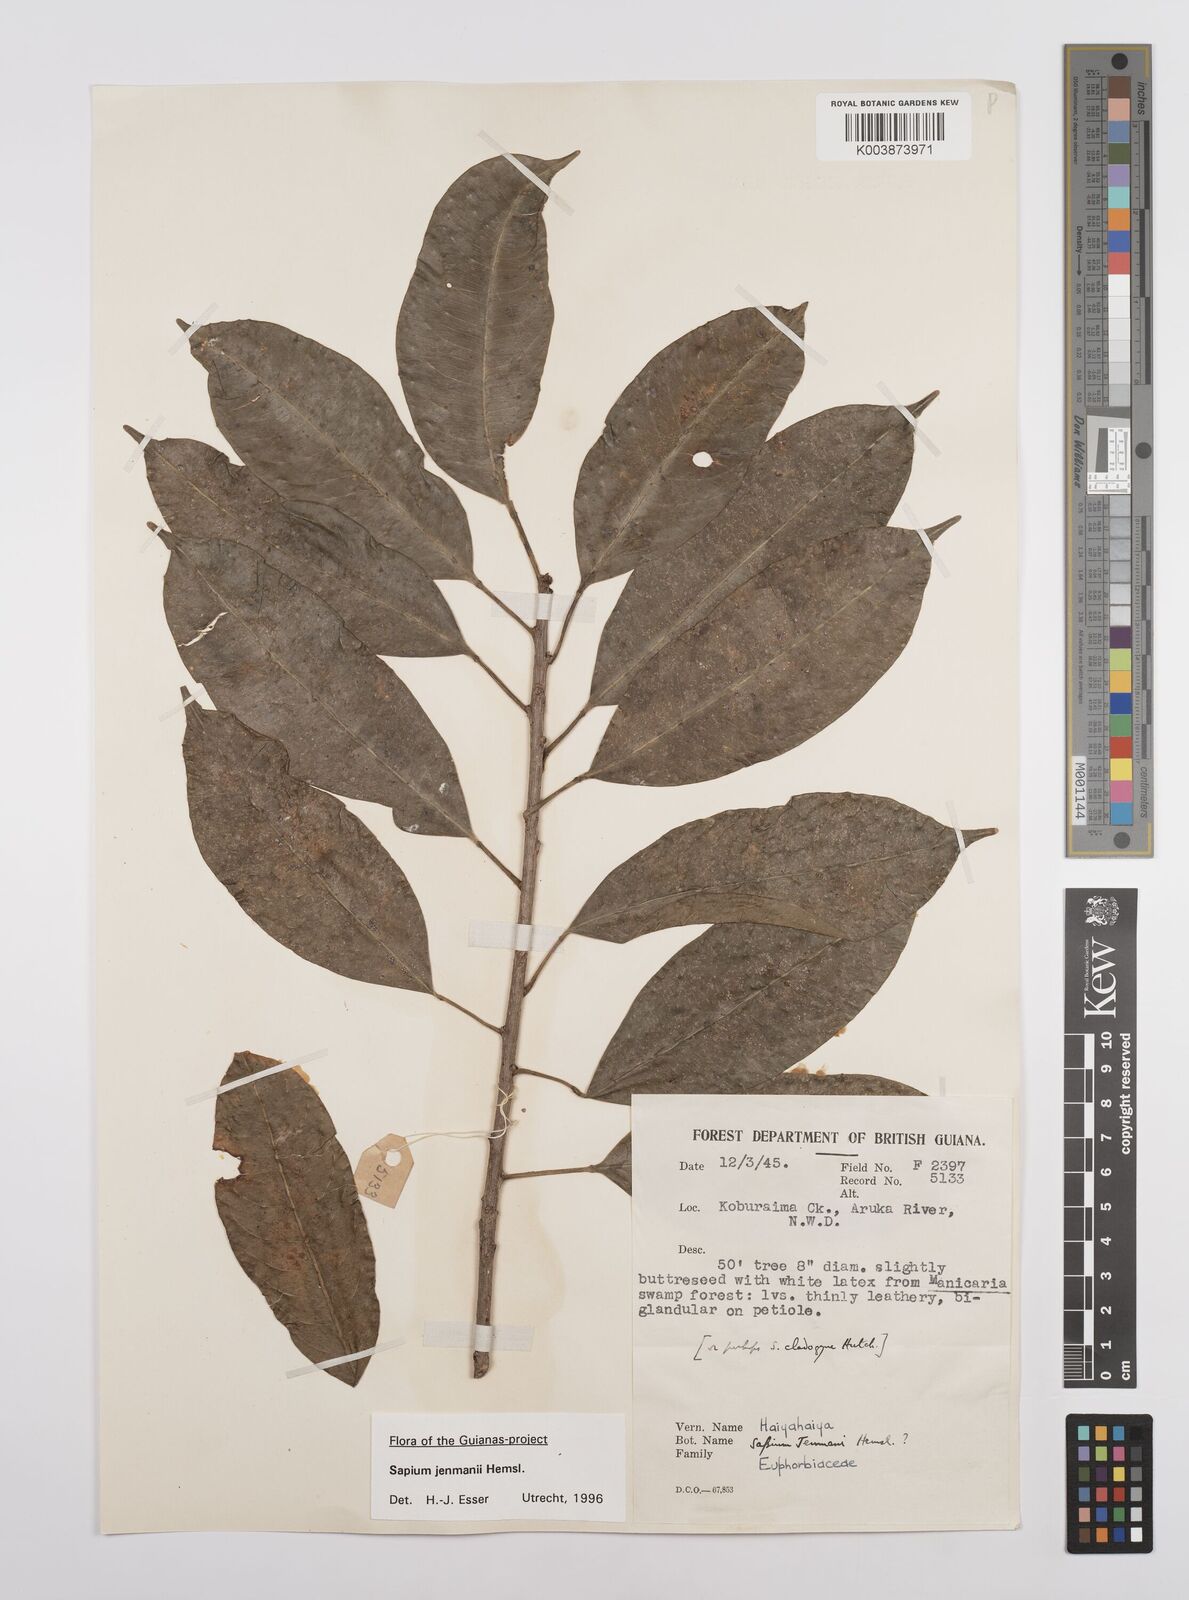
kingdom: Plantae
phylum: Tracheophyta
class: Magnoliopsida
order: Malpighiales
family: Euphorbiaceae
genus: Sapium
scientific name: Sapium jenmannii
